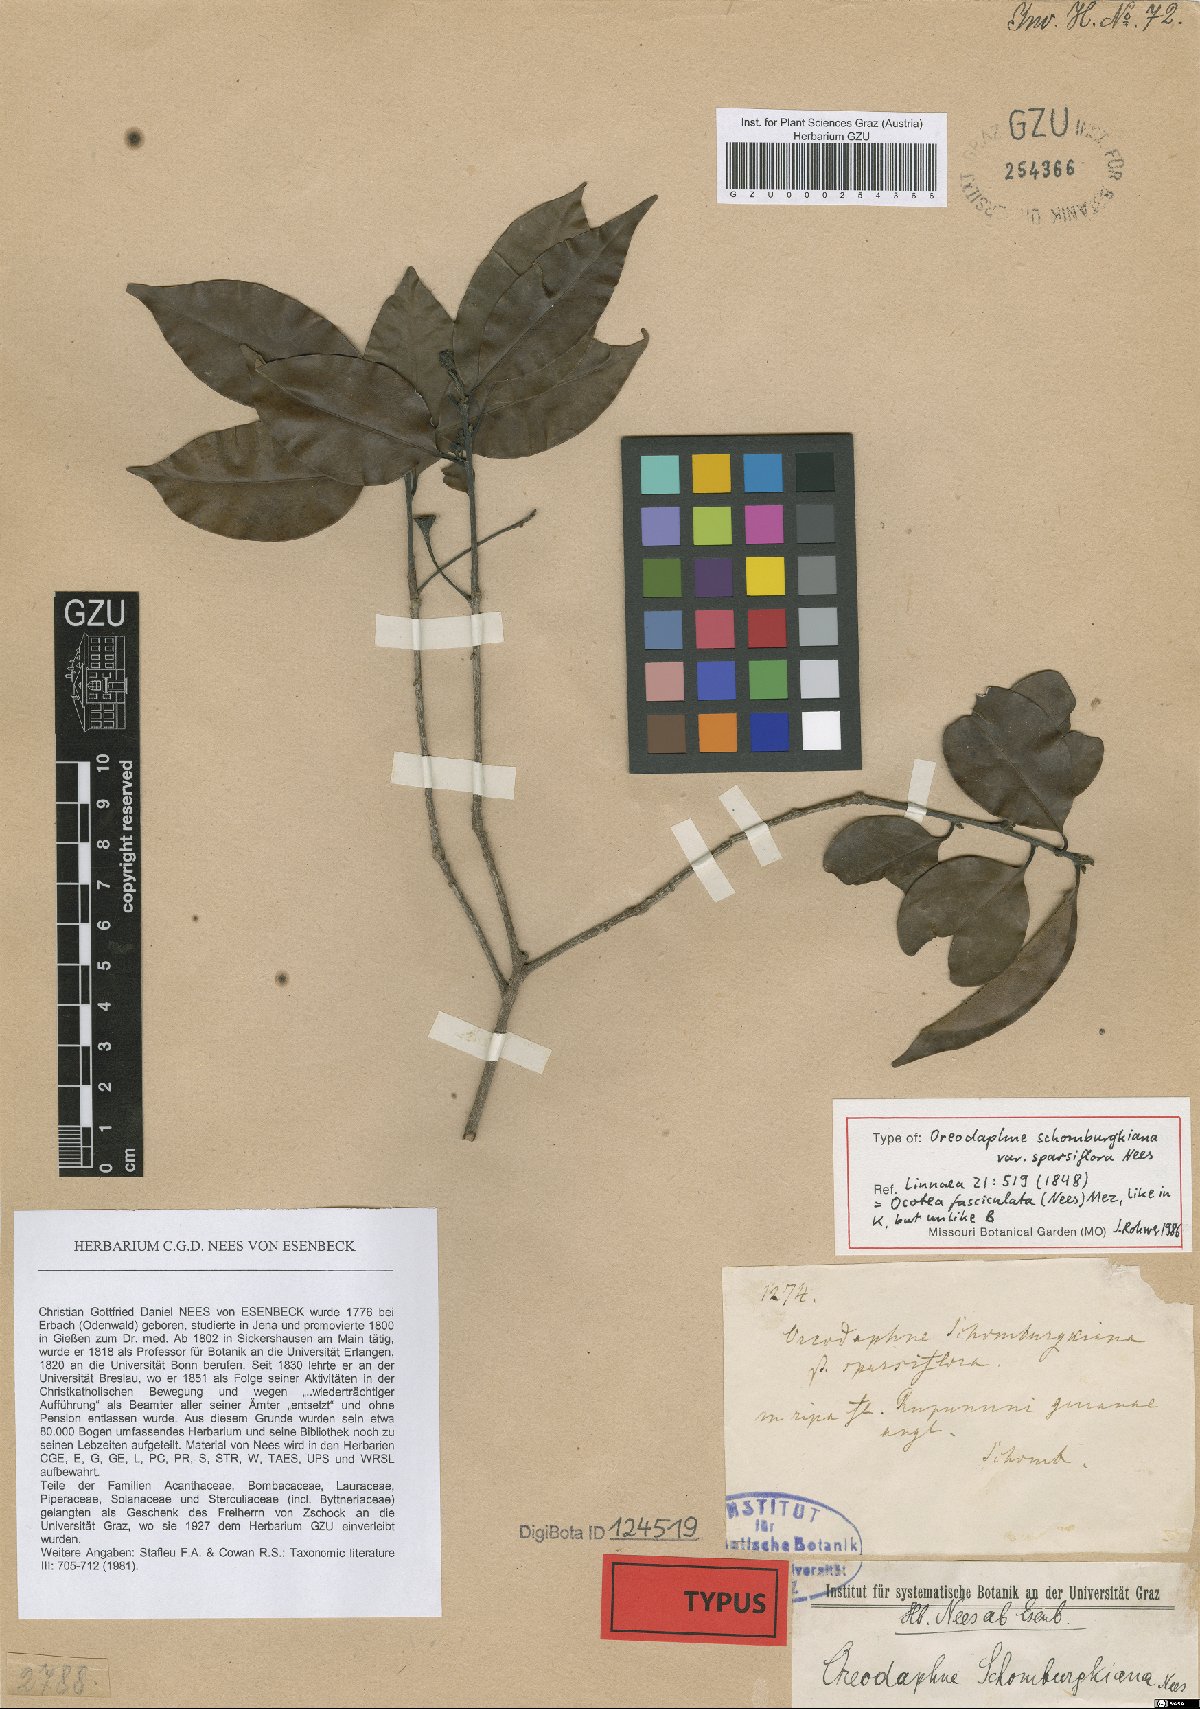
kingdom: Plantae
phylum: Tracheophyta
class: Magnoliopsida
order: Laurales
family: Lauraceae
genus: Ocotea
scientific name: Ocotea schomburgkiana
